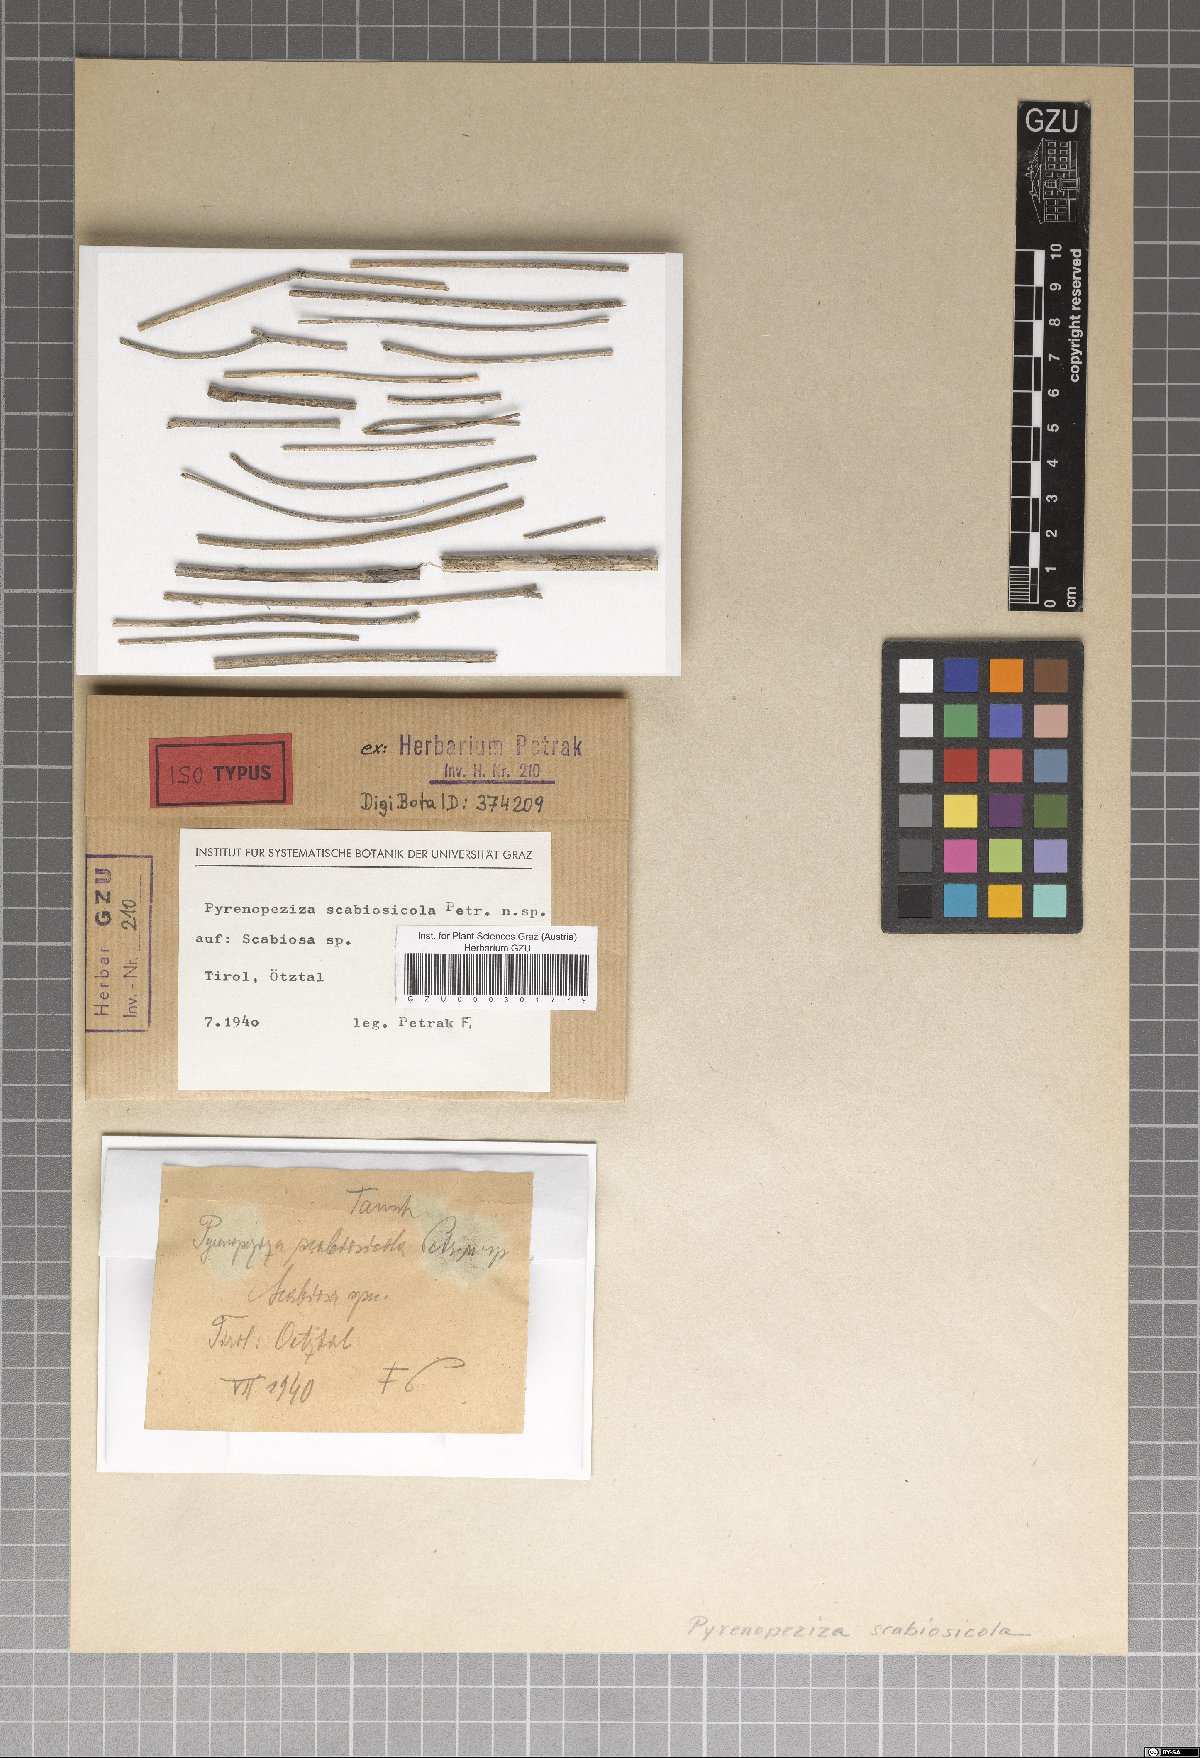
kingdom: Fungi
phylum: Ascomycota
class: Leotiomycetes
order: Helotiales
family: Dermateaceae
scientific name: Dermateaceae
